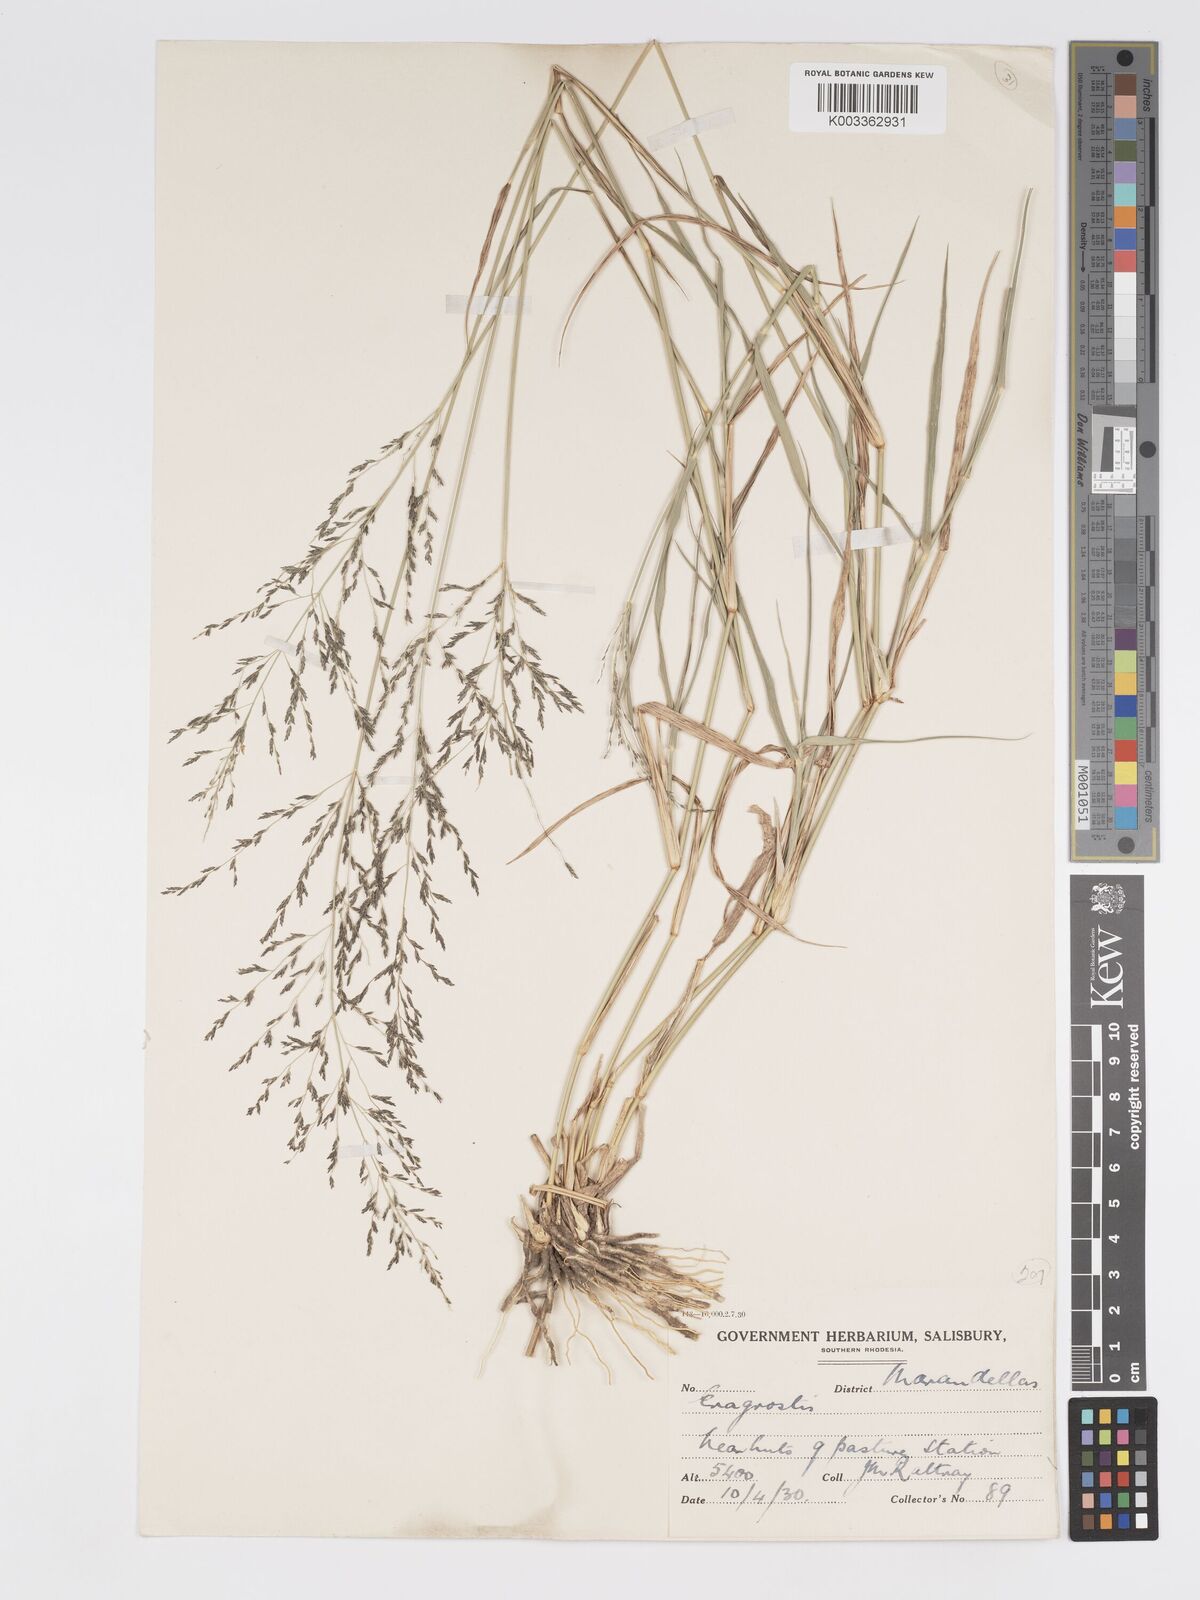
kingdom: Plantae
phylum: Tracheophyta
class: Liliopsida
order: Poales
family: Poaceae
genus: Eragrostis
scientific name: Eragrostis cylindriflora
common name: Cylinderflower lovegrass
